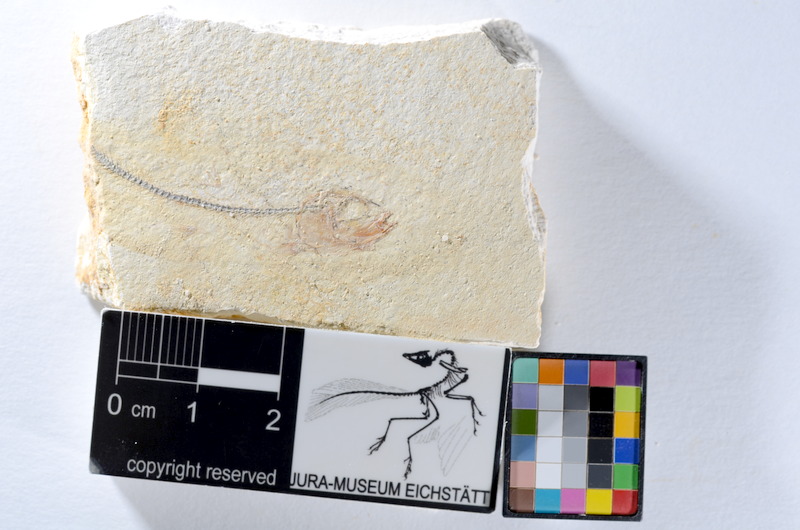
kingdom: Animalia
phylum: Chordata
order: Salmoniformes
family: Orthogonikleithridae
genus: Orthogonikleithrus
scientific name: Orthogonikleithrus hoelli
